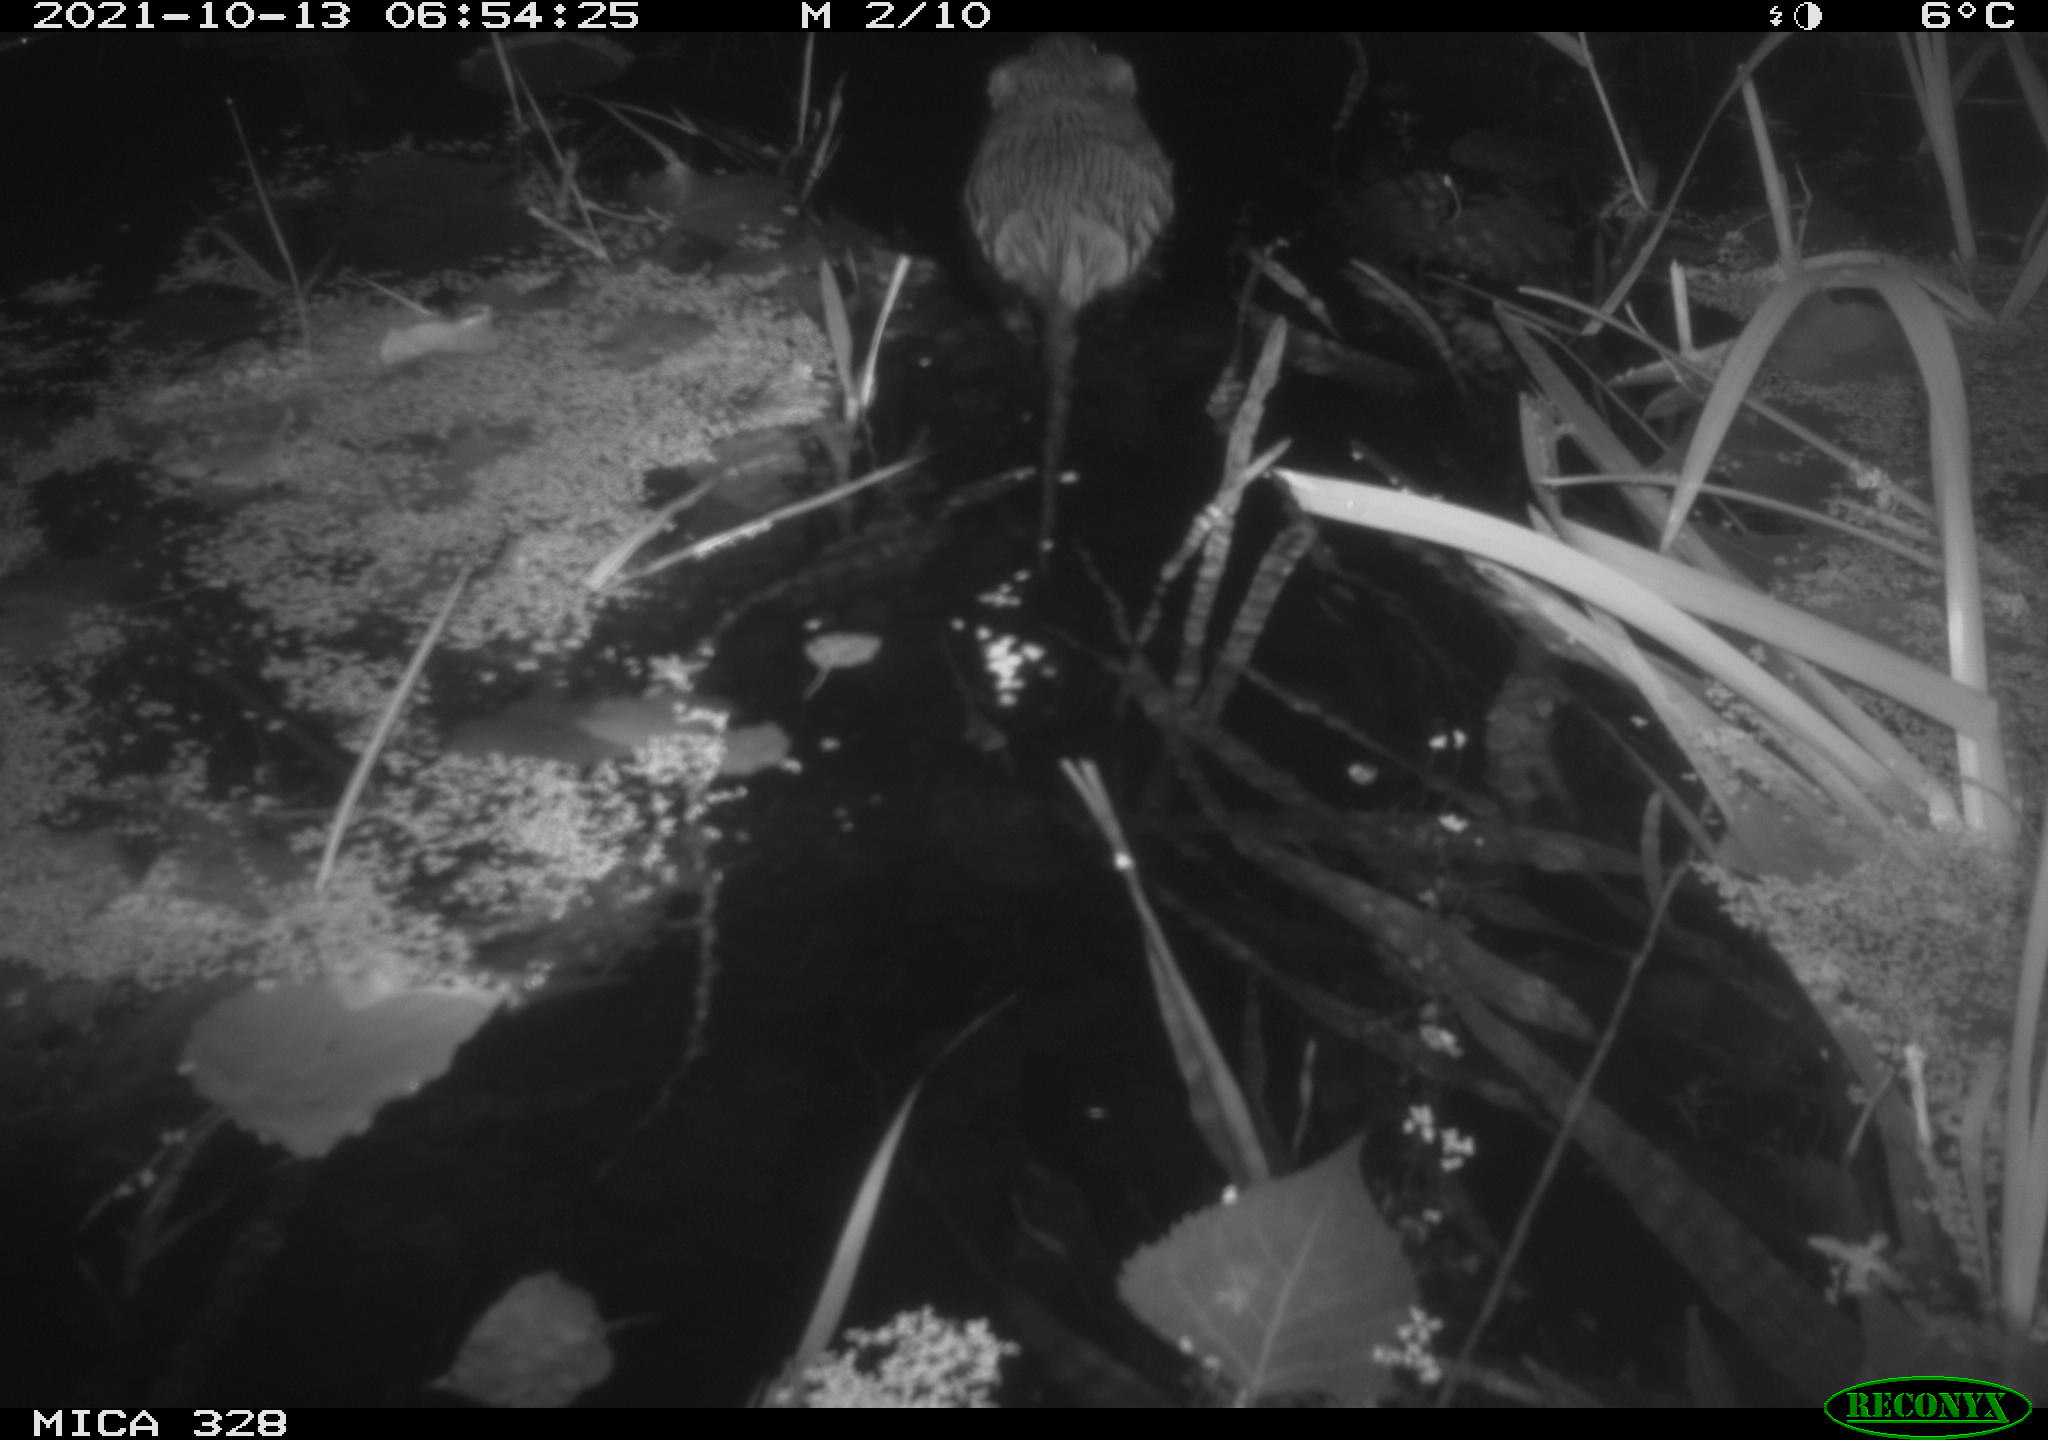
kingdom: Animalia
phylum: Chordata
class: Mammalia
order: Rodentia
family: Cricetidae
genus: Ondatra
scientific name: Ondatra zibethicus
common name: Muskrat
